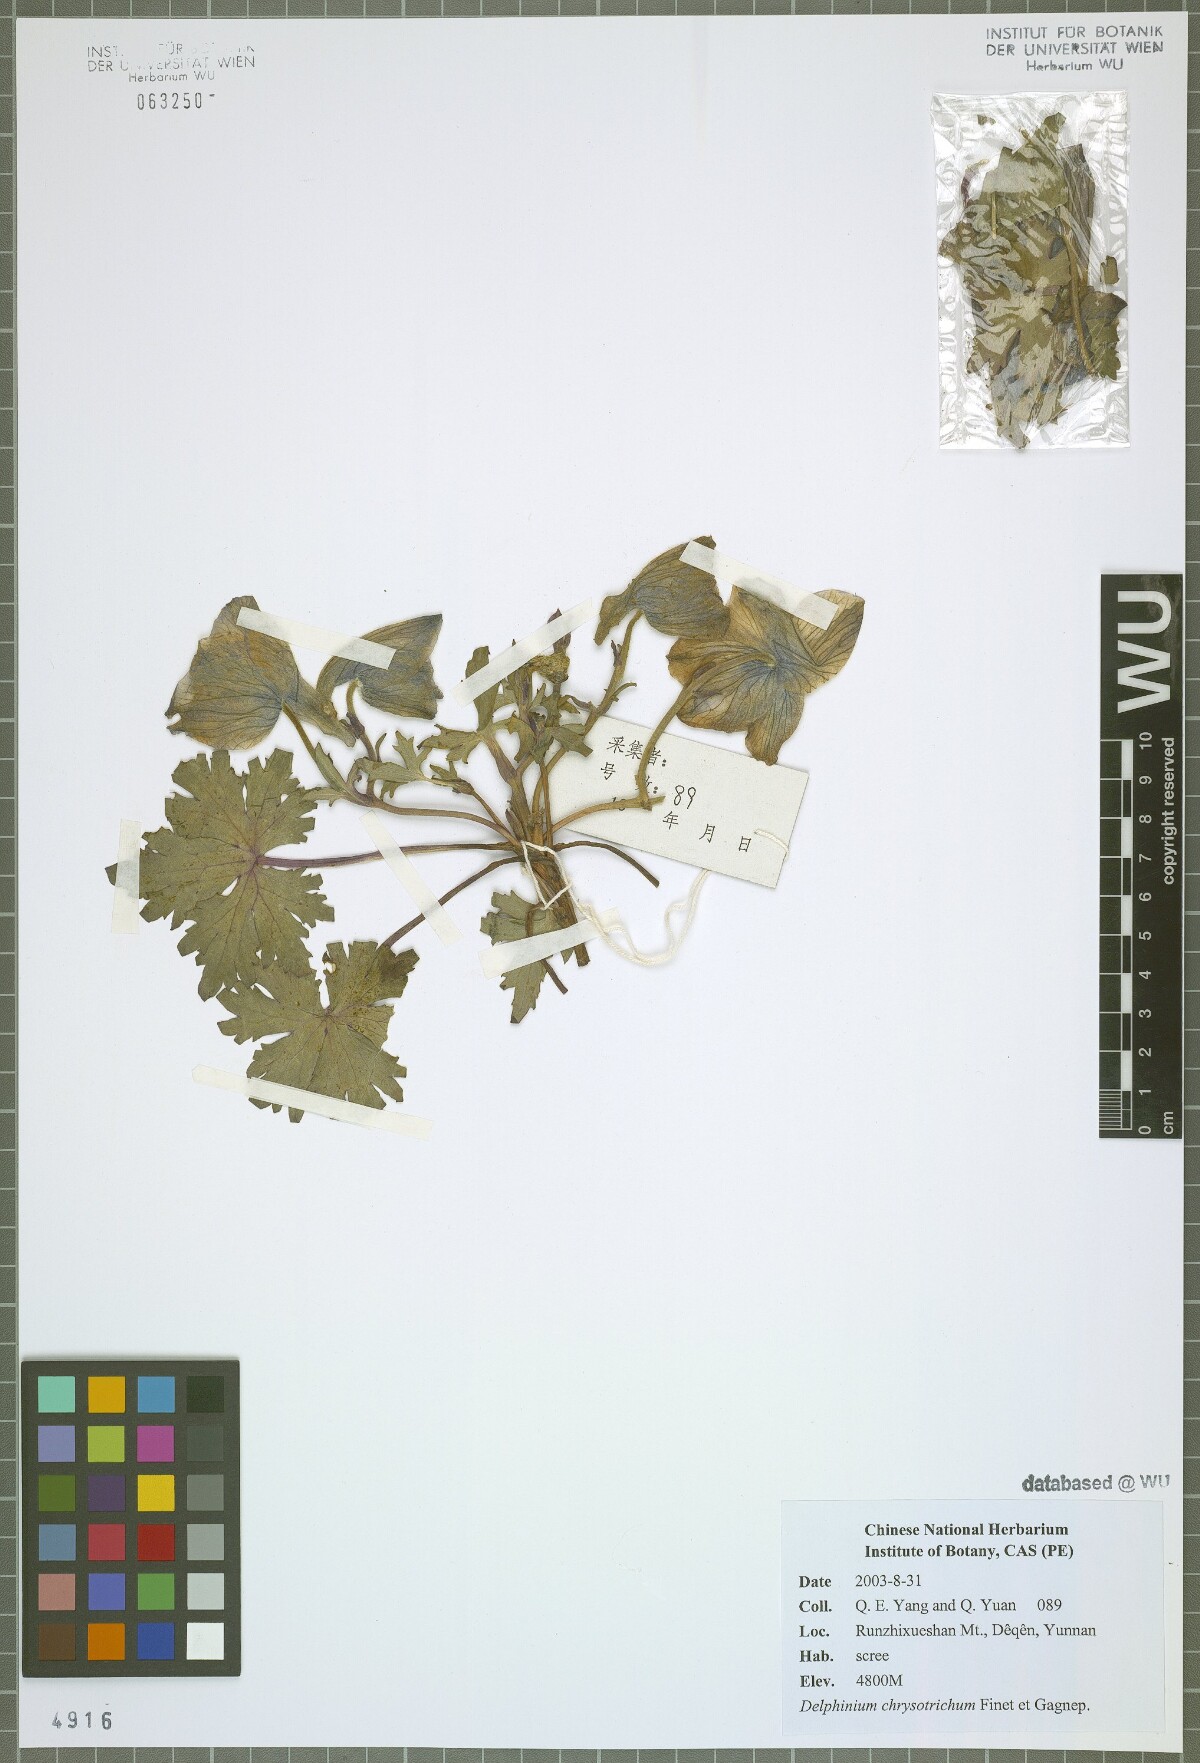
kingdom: Plantae
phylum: Tracheophyta
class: Magnoliopsida
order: Ranunculales
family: Ranunculaceae
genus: Delphinium
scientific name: Delphinium chrysotrichum
